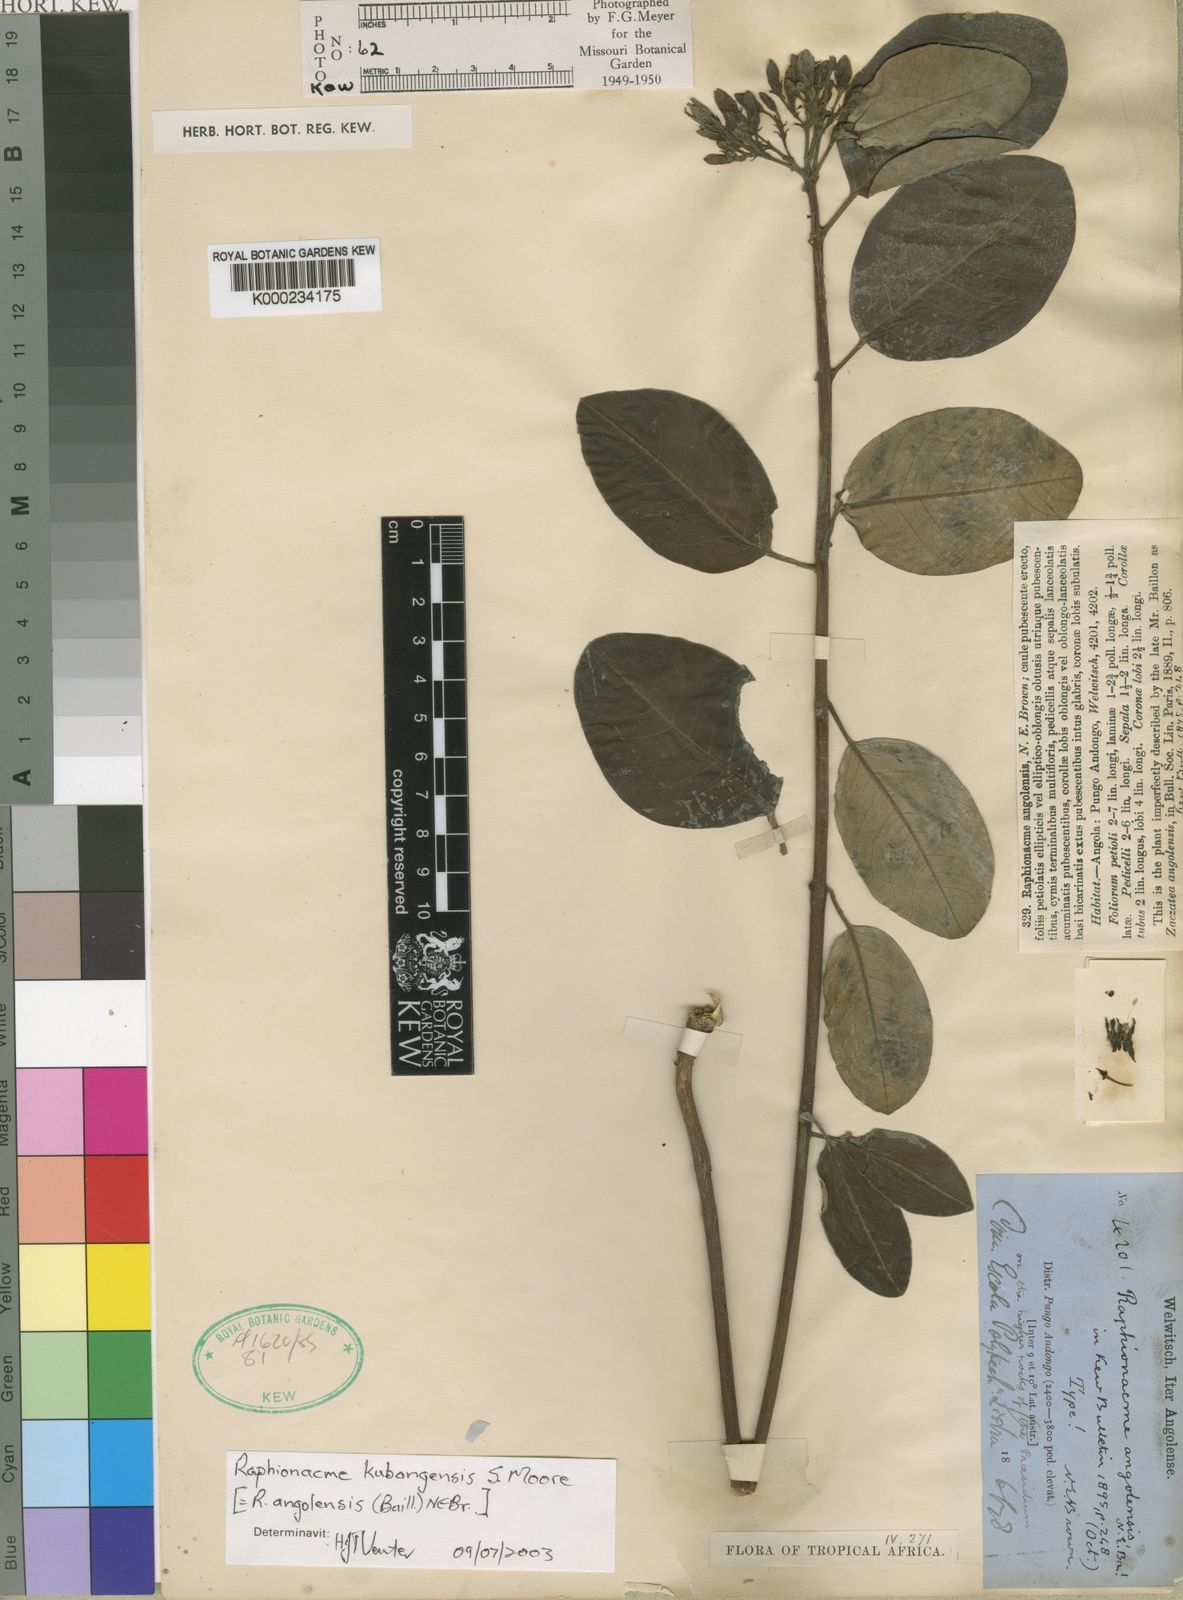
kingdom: Plantae
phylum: Tracheophyta
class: Magnoliopsida
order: Gentianales
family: Apocynaceae
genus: Raphionacme
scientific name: Raphionacme angolensis
